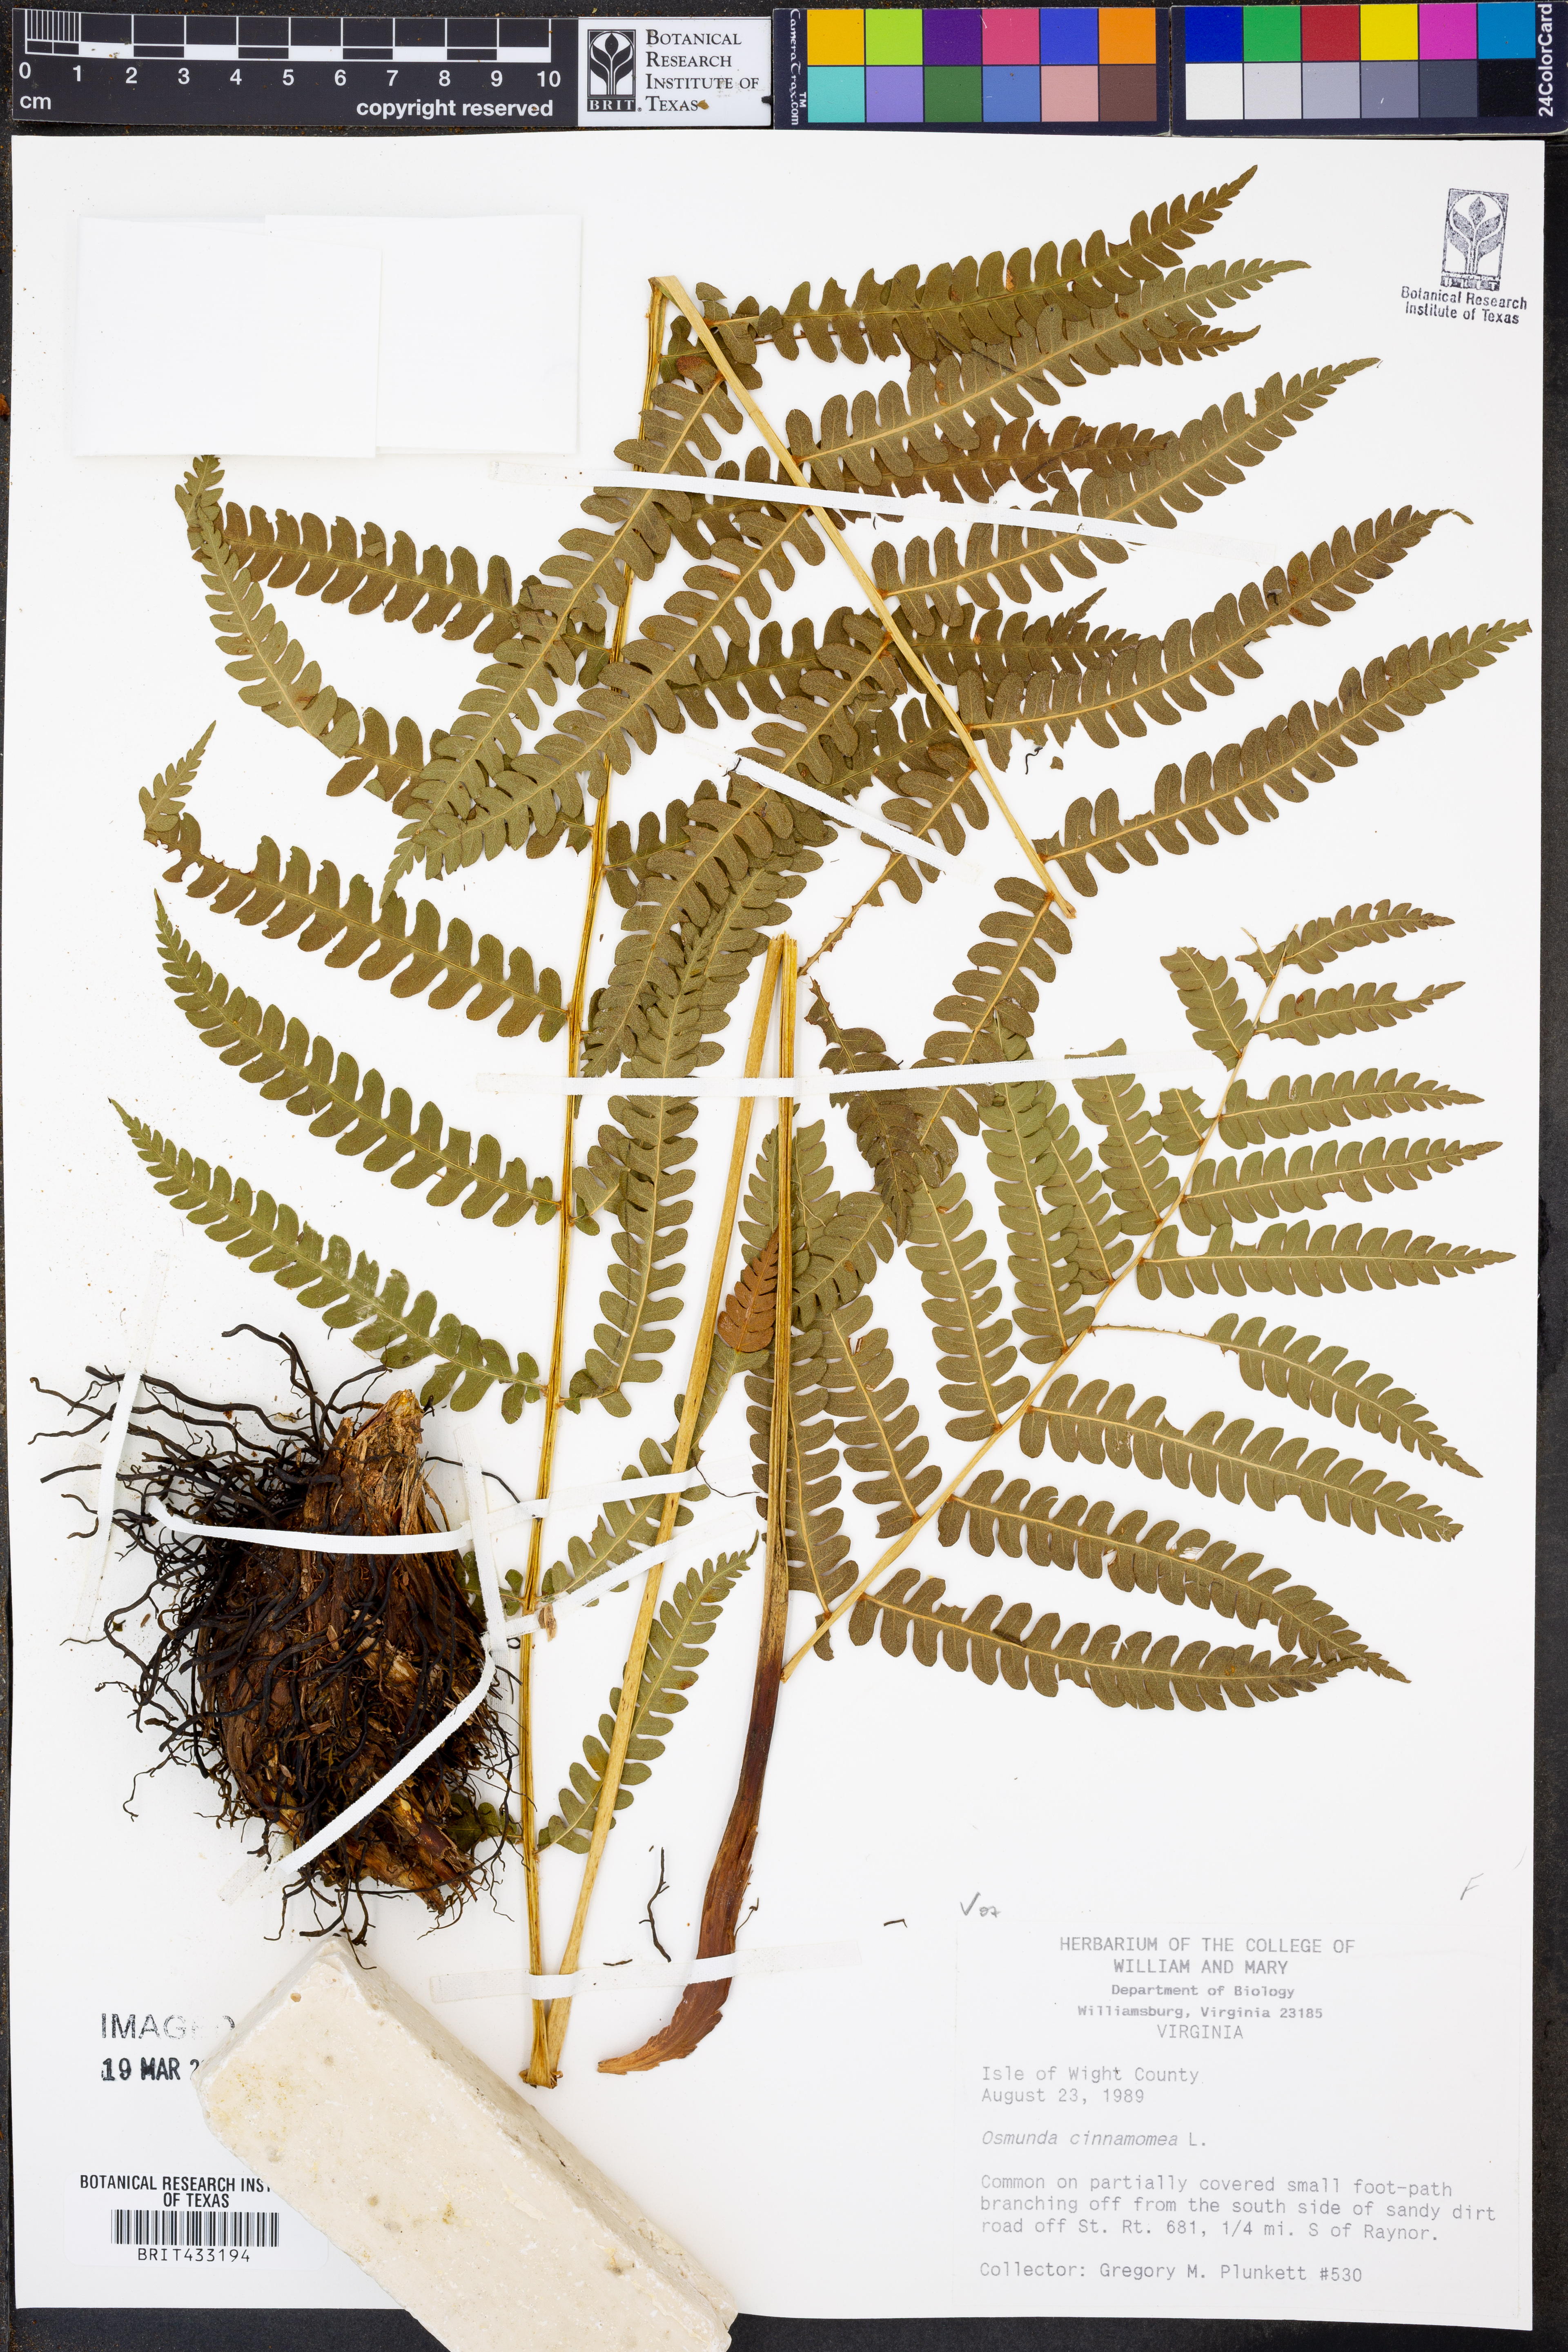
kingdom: Plantae
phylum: Tracheophyta
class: Polypodiopsida
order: Osmundales
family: Osmundaceae
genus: Osmundastrum
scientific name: Osmundastrum cinnamomeum
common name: Cinnamon fern
